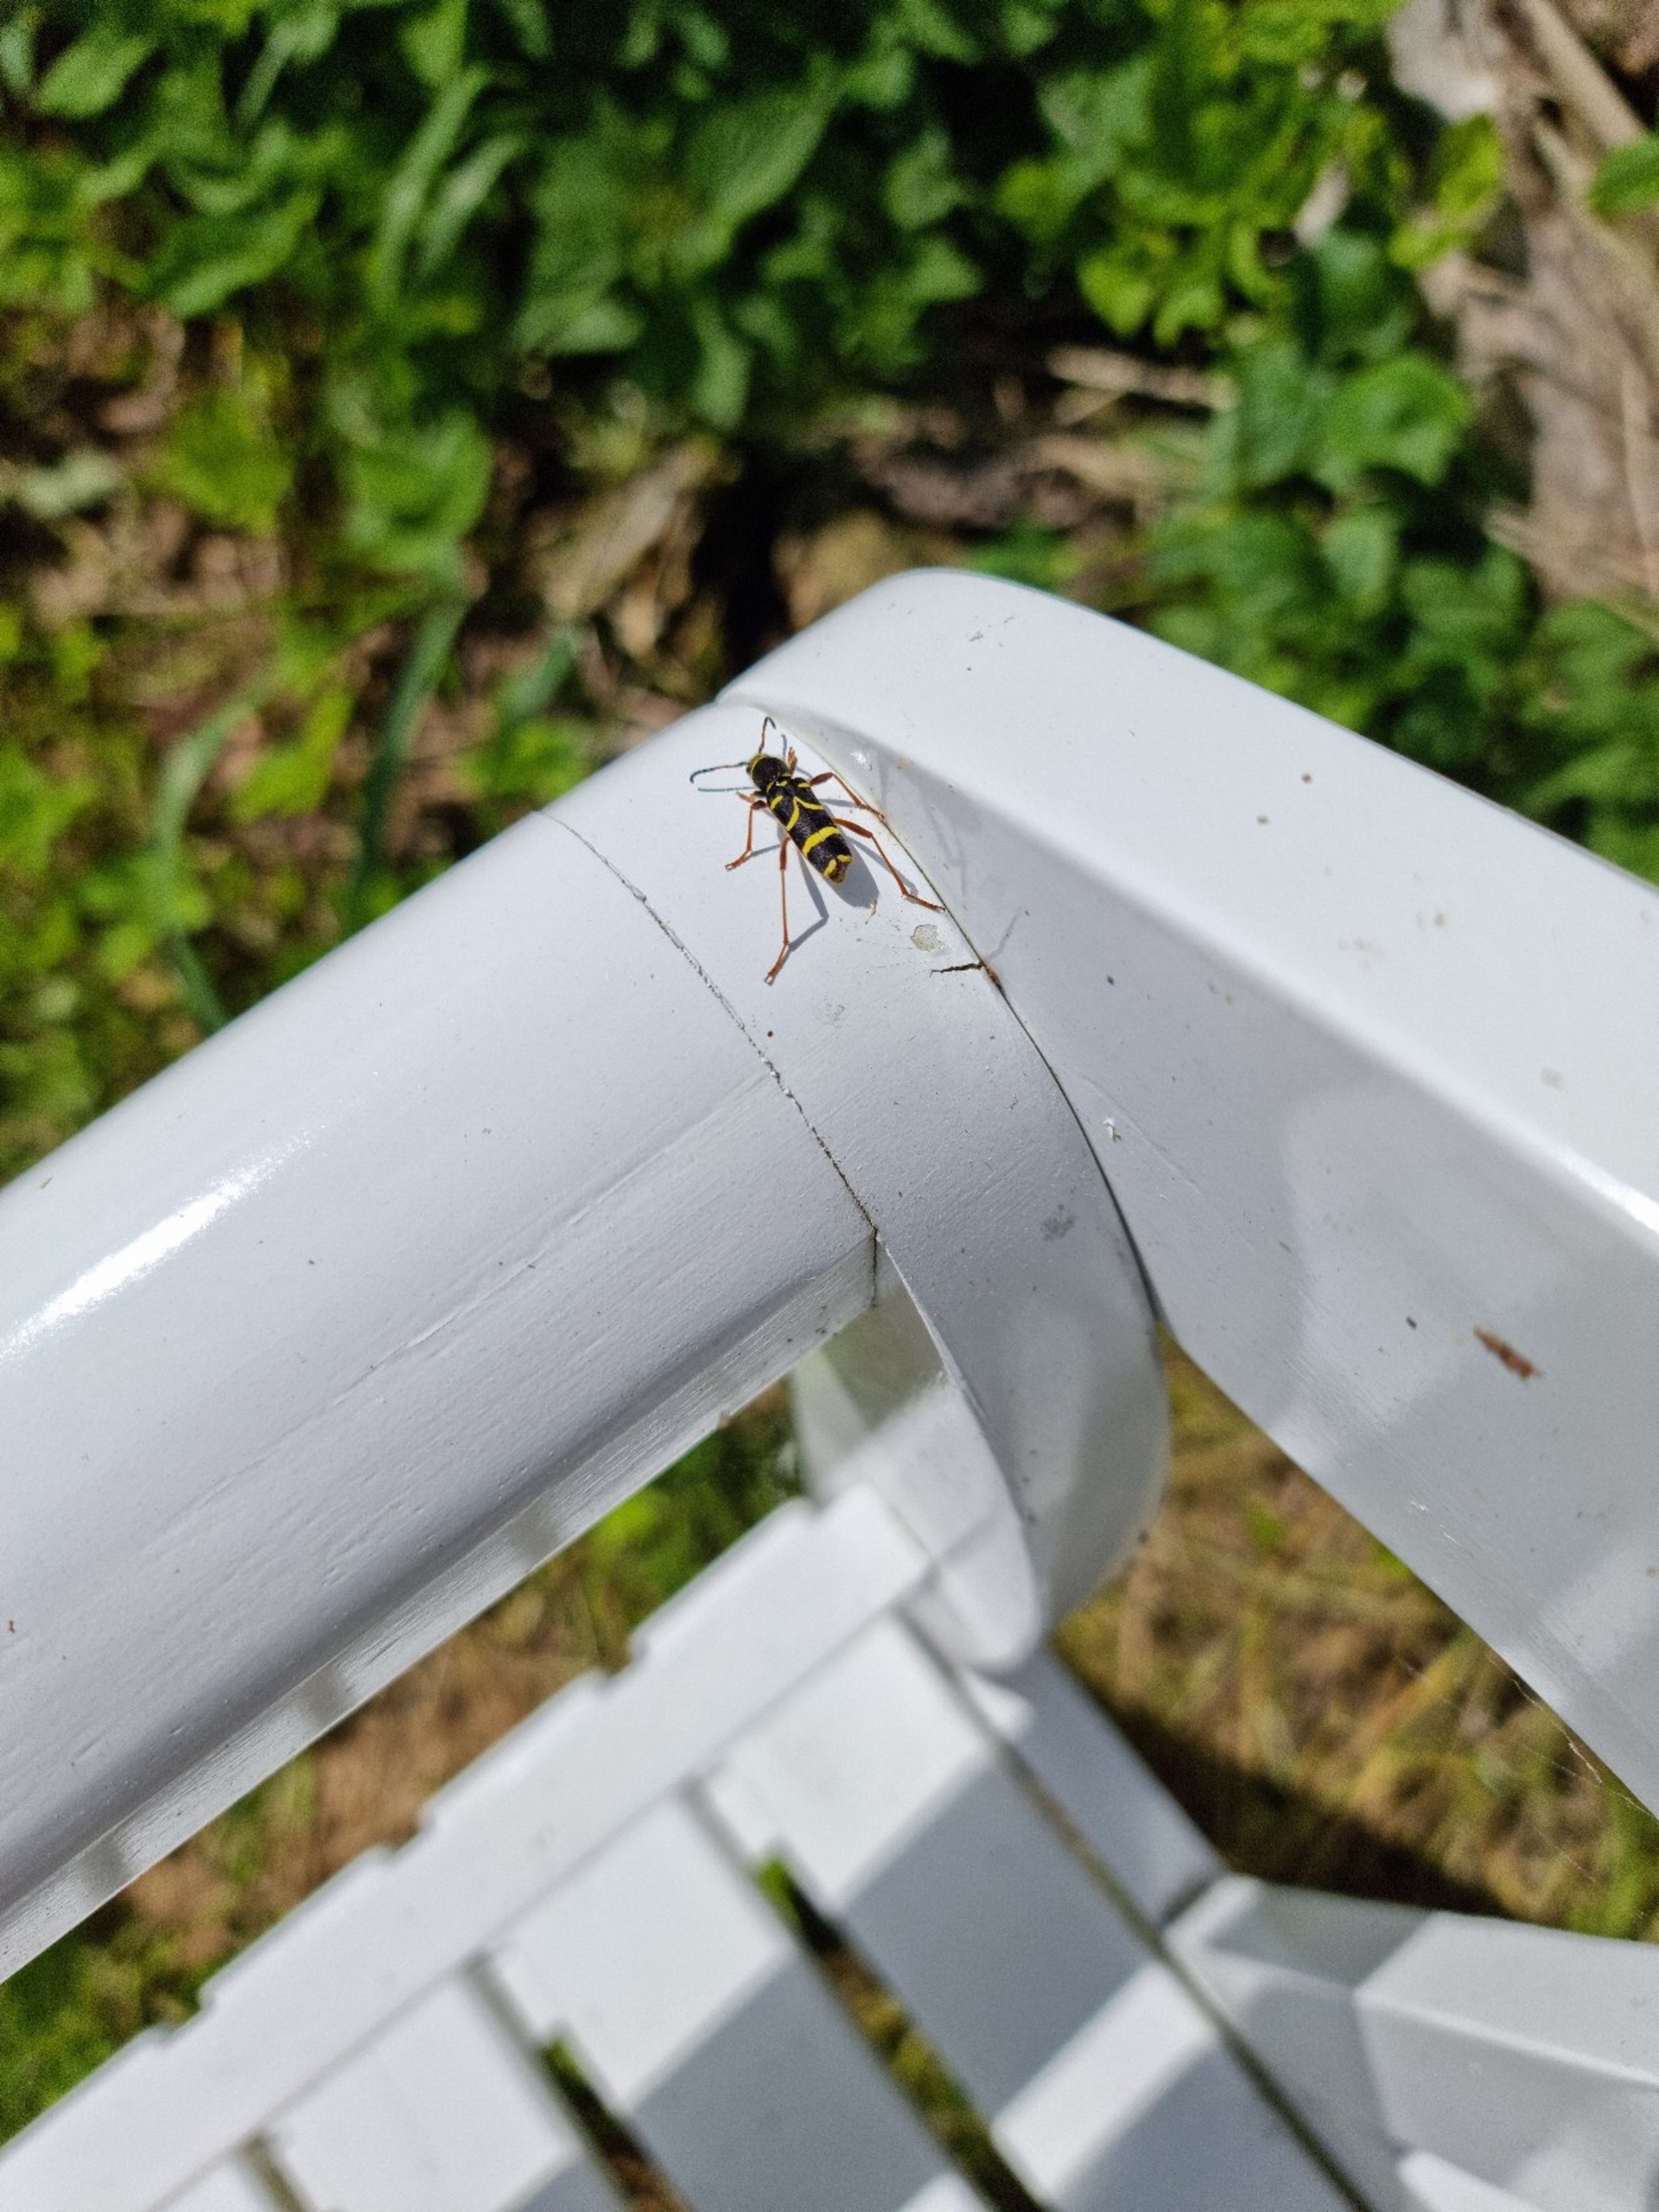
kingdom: Animalia
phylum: Arthropoda
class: Insecta
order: Coleoptera
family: Cerambycidae
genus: Clytus
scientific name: Clytus arietis
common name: Lille hvepsebuk
